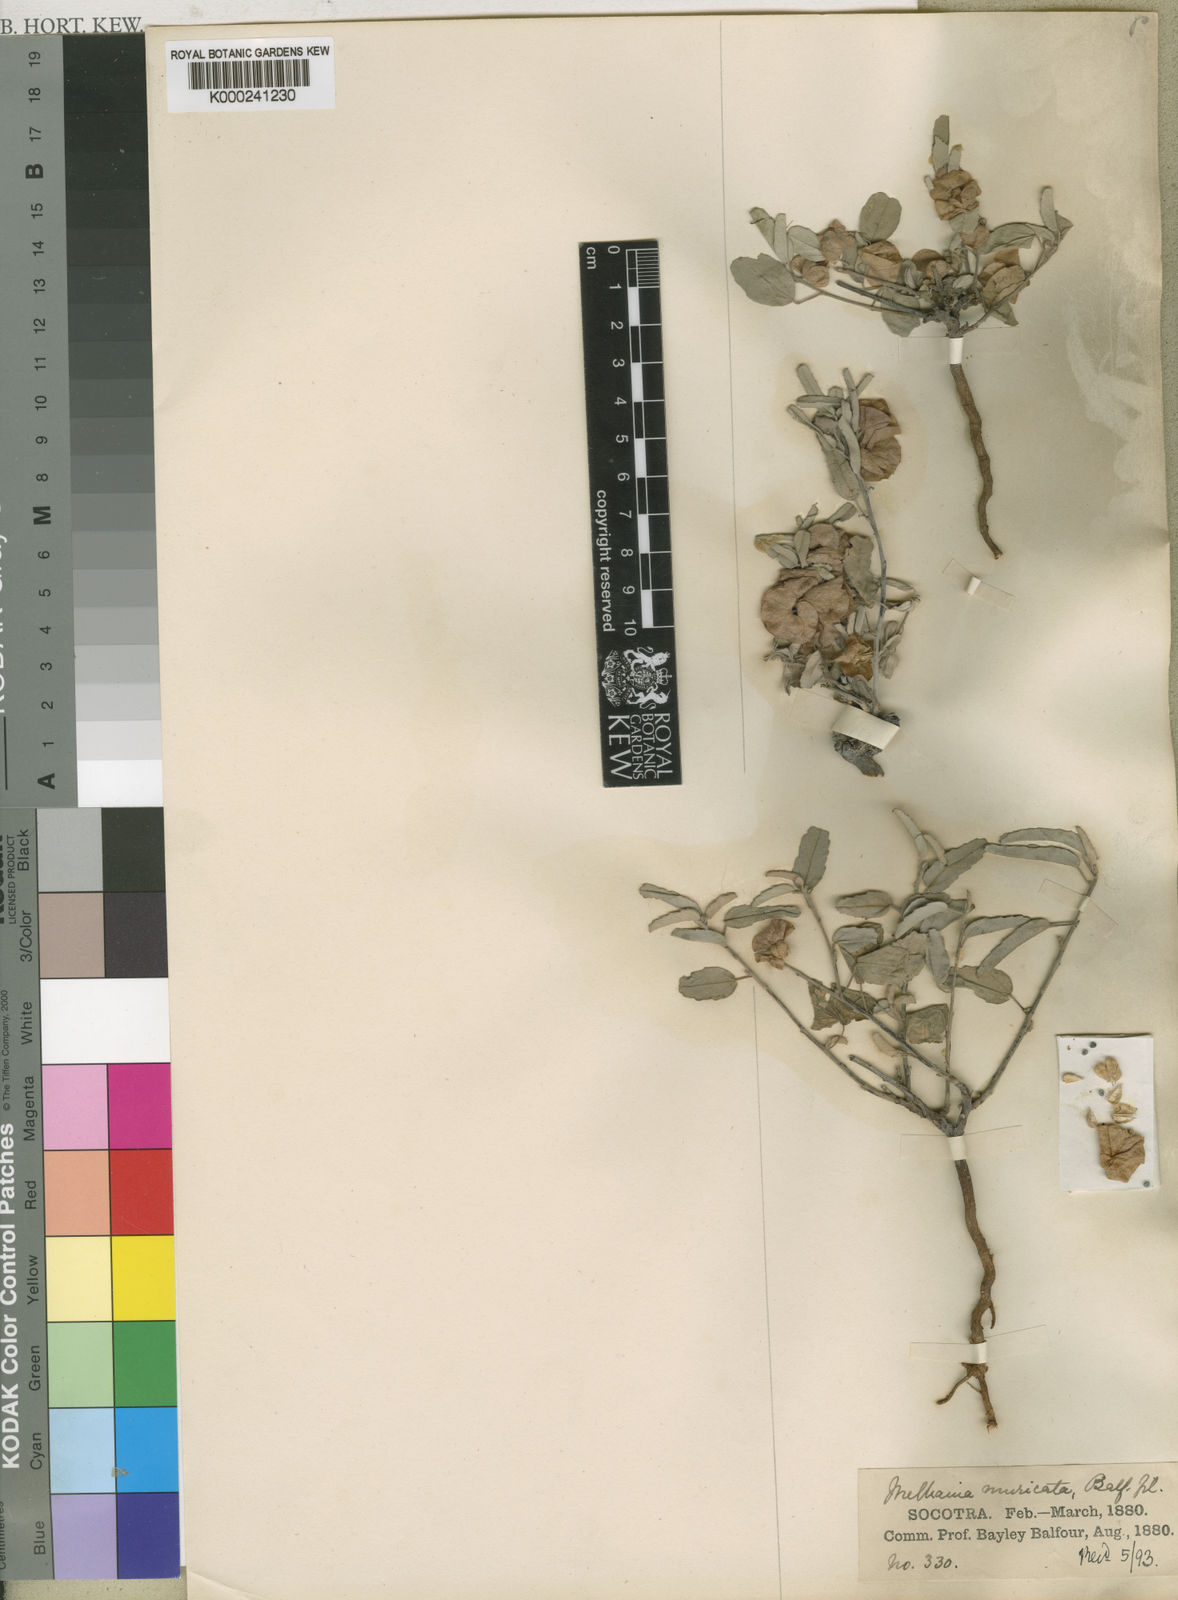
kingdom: Plantae
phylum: Tracheophyta
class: Magnoliopsida
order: Malvales
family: Malvaceae
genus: Melhania
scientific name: Melhania muricata
